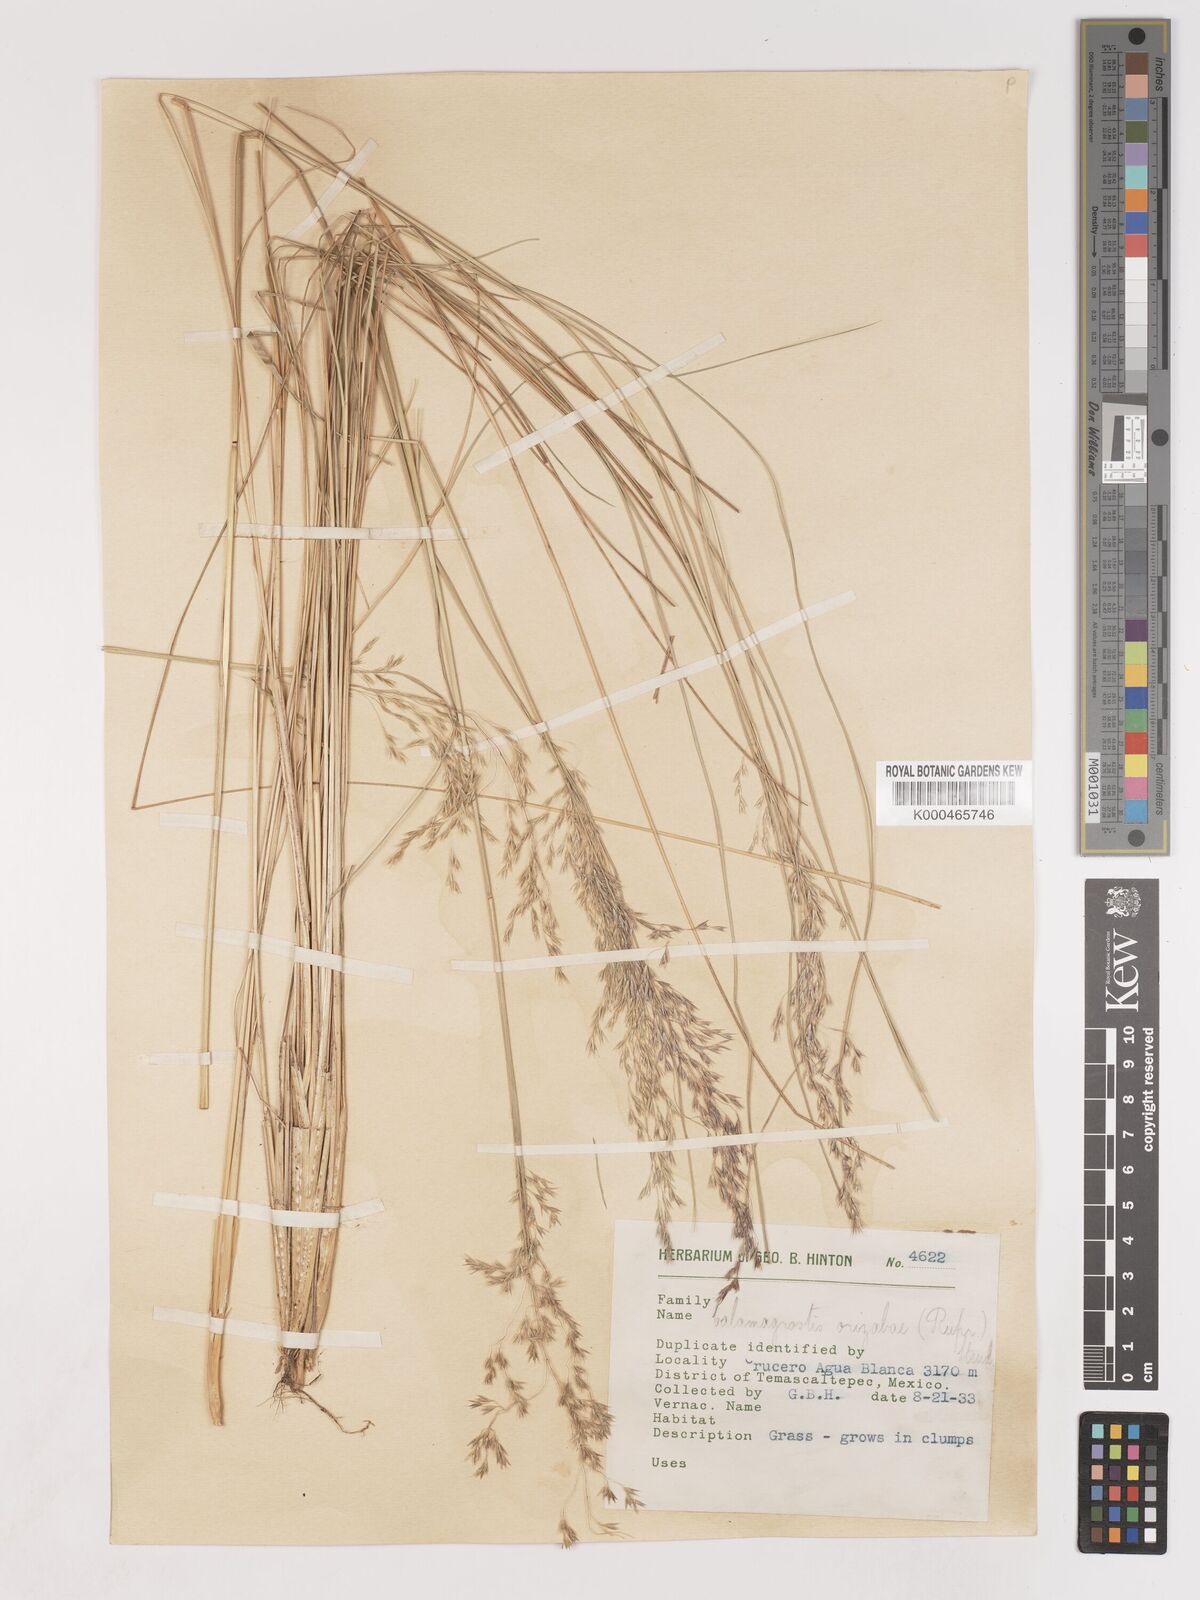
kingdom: Plantae
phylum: Tracheophyta
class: Liliopsida
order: Poales
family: Poaceae
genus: Peyritschia
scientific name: Peyritschia erectifolia
